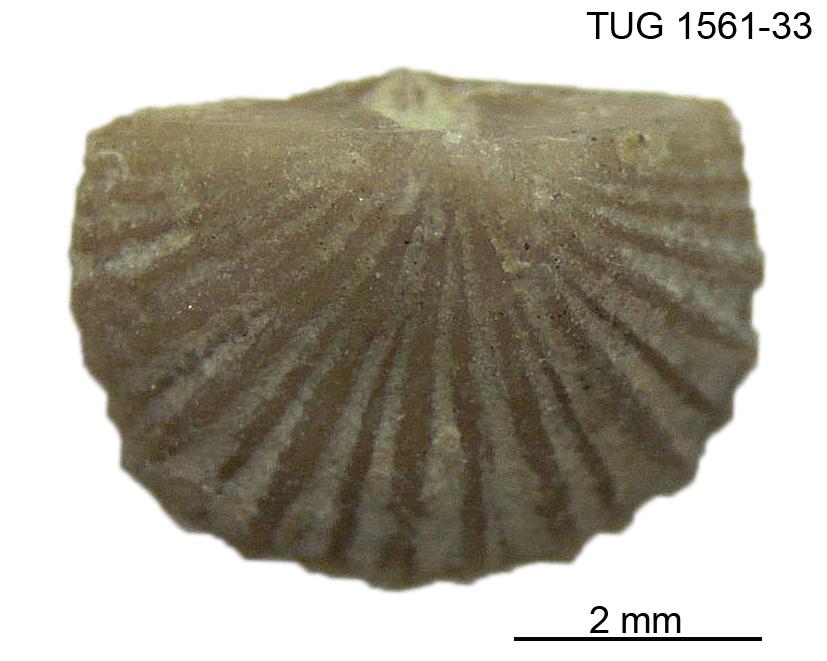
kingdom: Animalia
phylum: Brachiopoda
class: Rhynchonellata
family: Dalmanellidae
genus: Orthis
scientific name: Orthis
